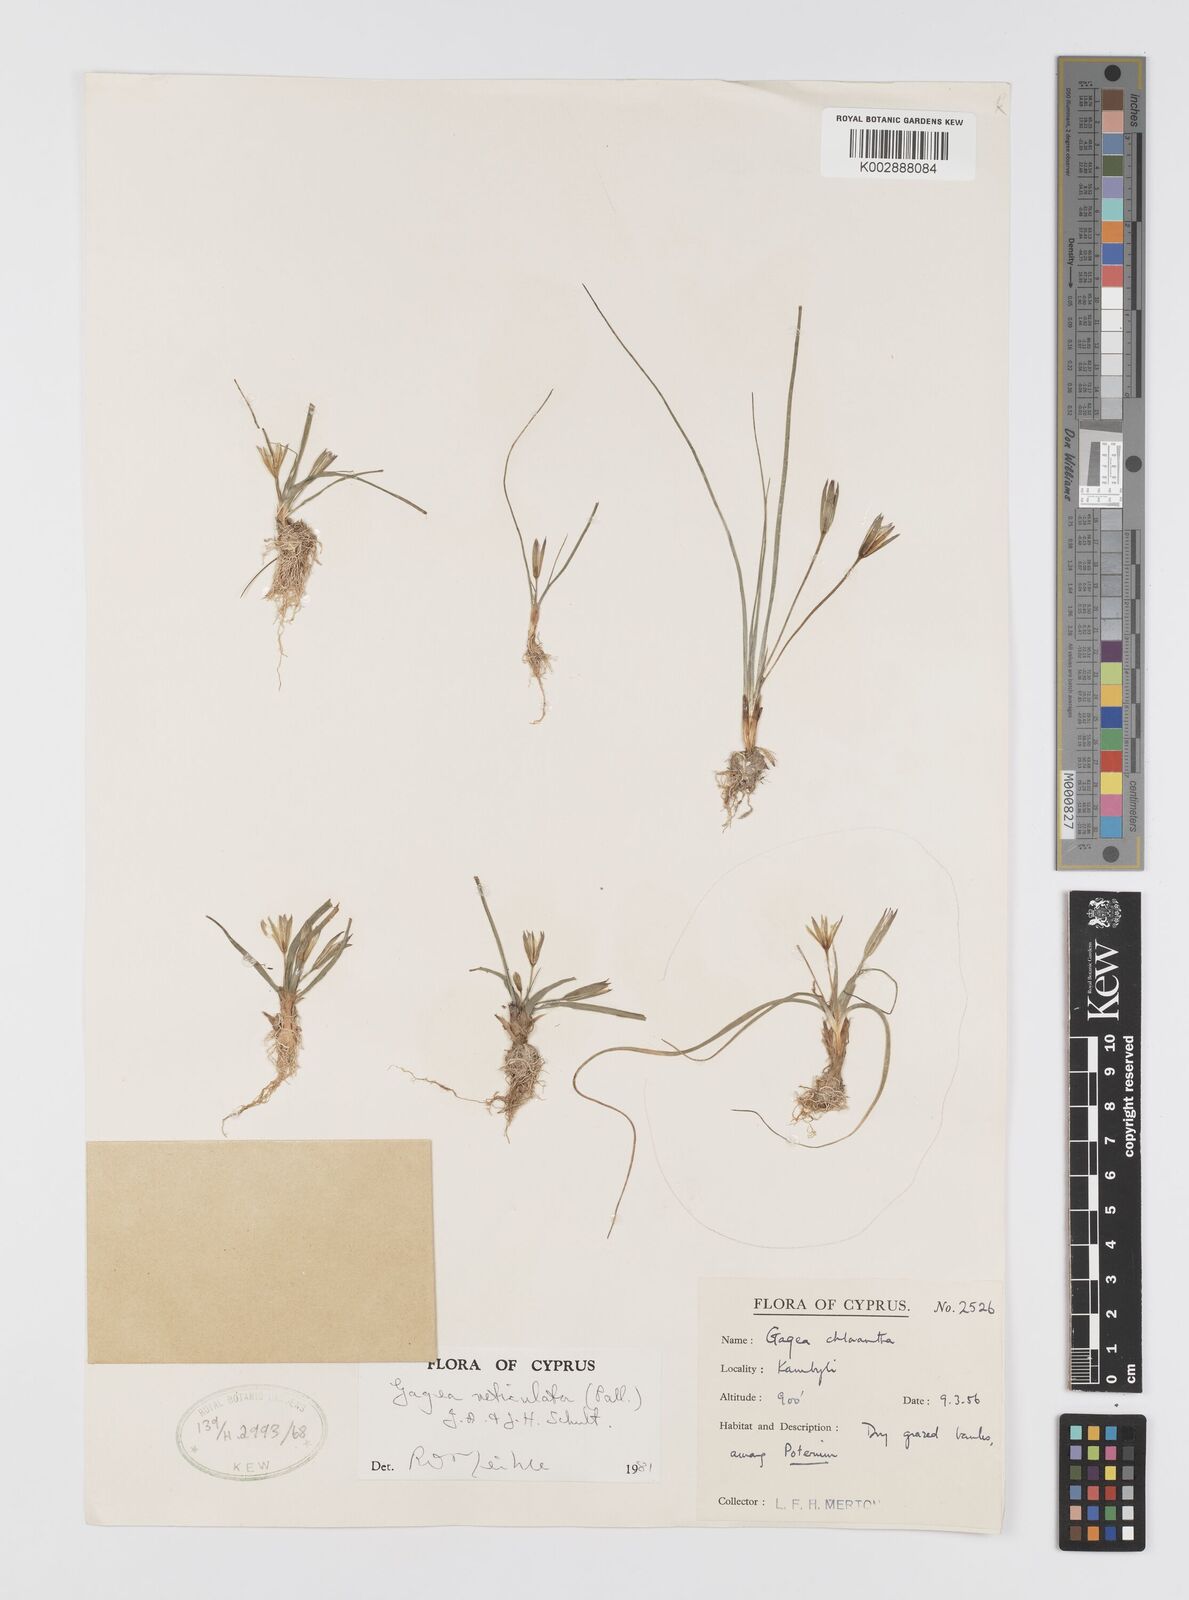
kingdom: Plantae
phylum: Tracheophyta
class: Liliopsida
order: Liliales
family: Liliaceae
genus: Gagea
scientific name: Gagea reticulata
